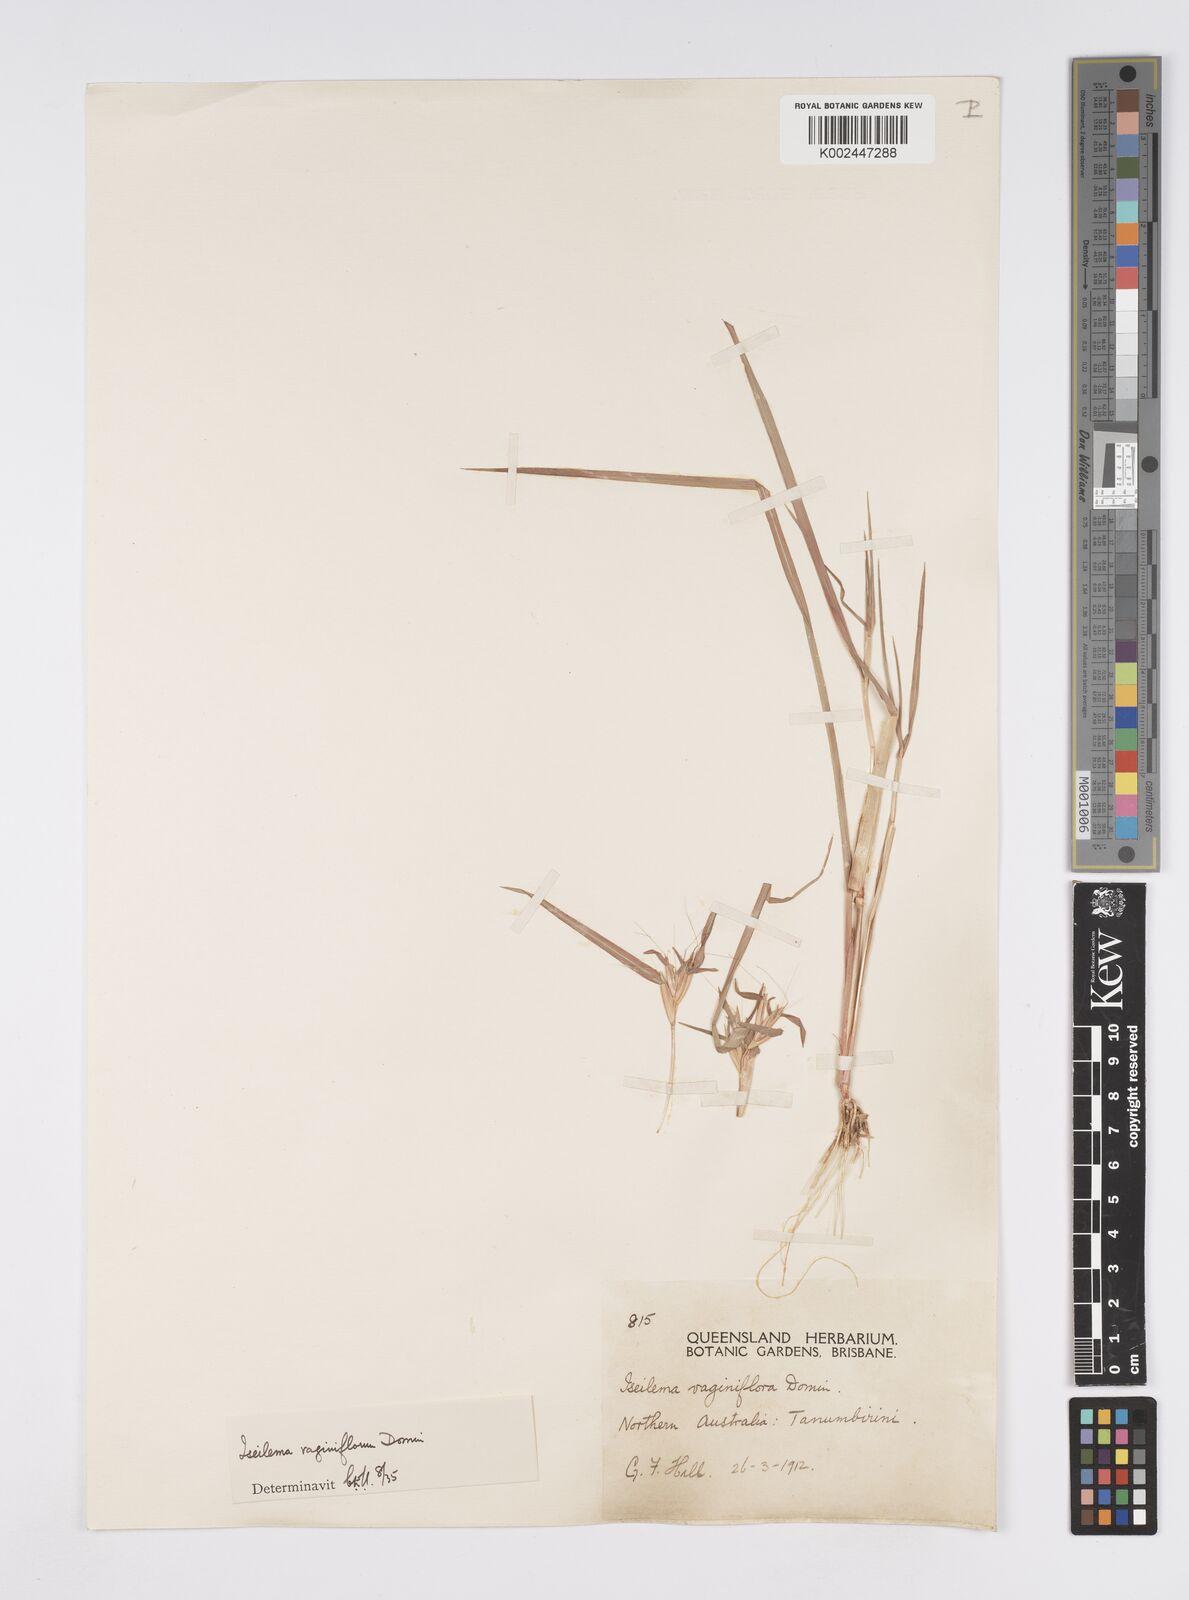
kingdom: Plantae
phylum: Tracheophyta
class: Liliopsida
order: Poales
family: Poaceae
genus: Iseilema
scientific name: Iseilema vaginiflorum
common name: Red flinders grass
